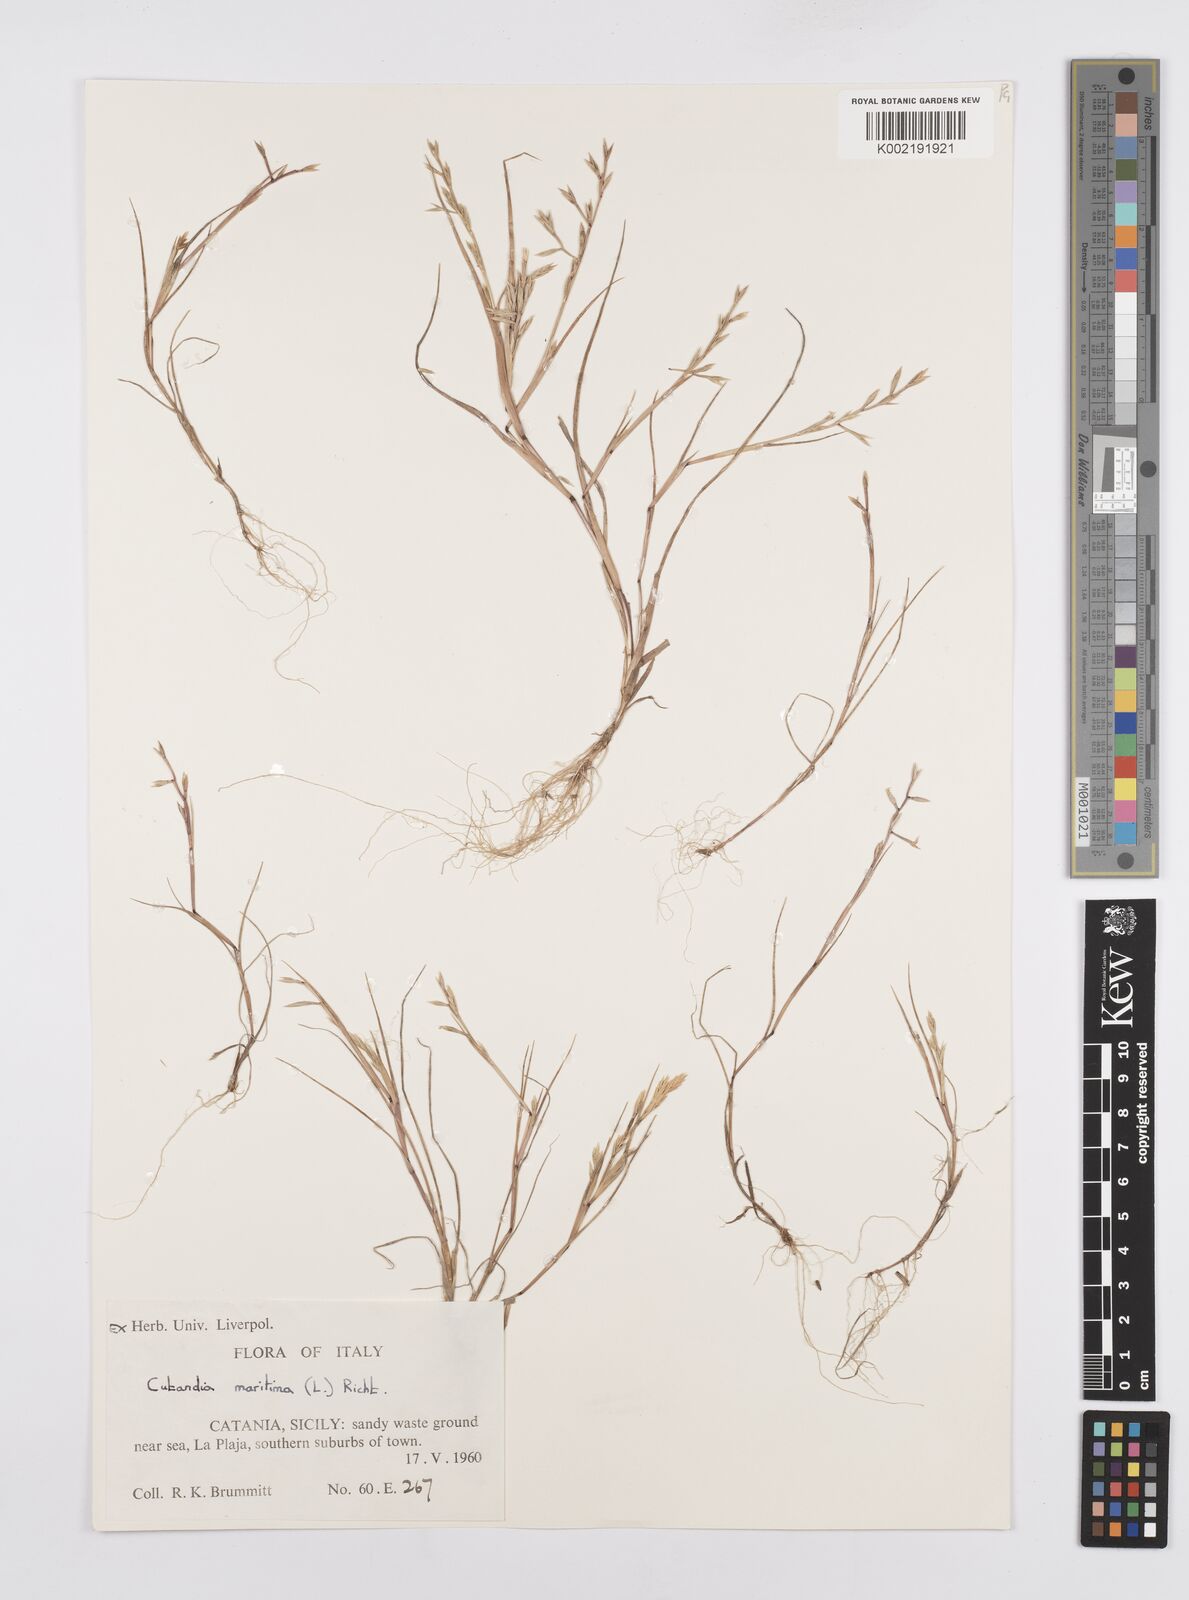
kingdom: Plantae
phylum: Tracheophyta
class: Liliopsida
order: Poales
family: Poaceae
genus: Cutandia
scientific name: Cutandia maritima
